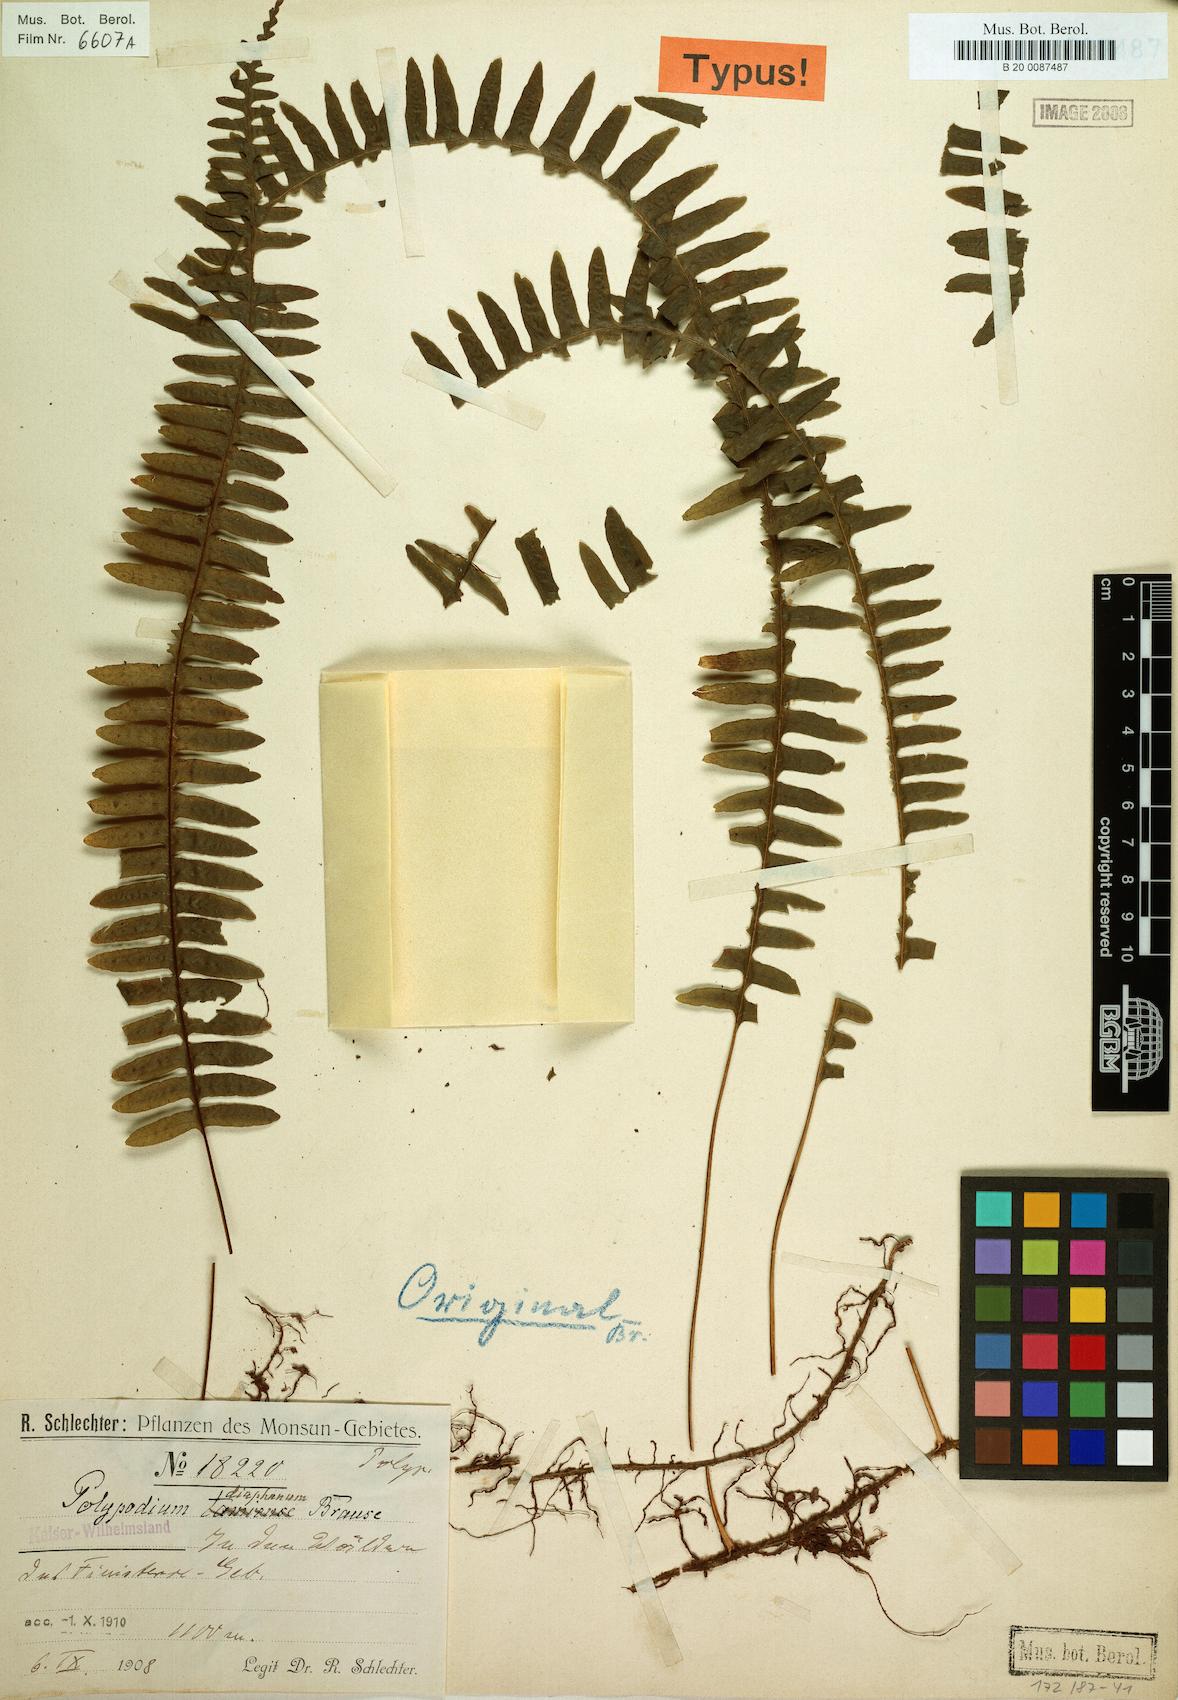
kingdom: Plantae
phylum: Tracheophyta
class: Polypodiopsida
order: Polypodiales
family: Polypodiaceae
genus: Thylacopteris
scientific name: Thylacopteris diaphana
